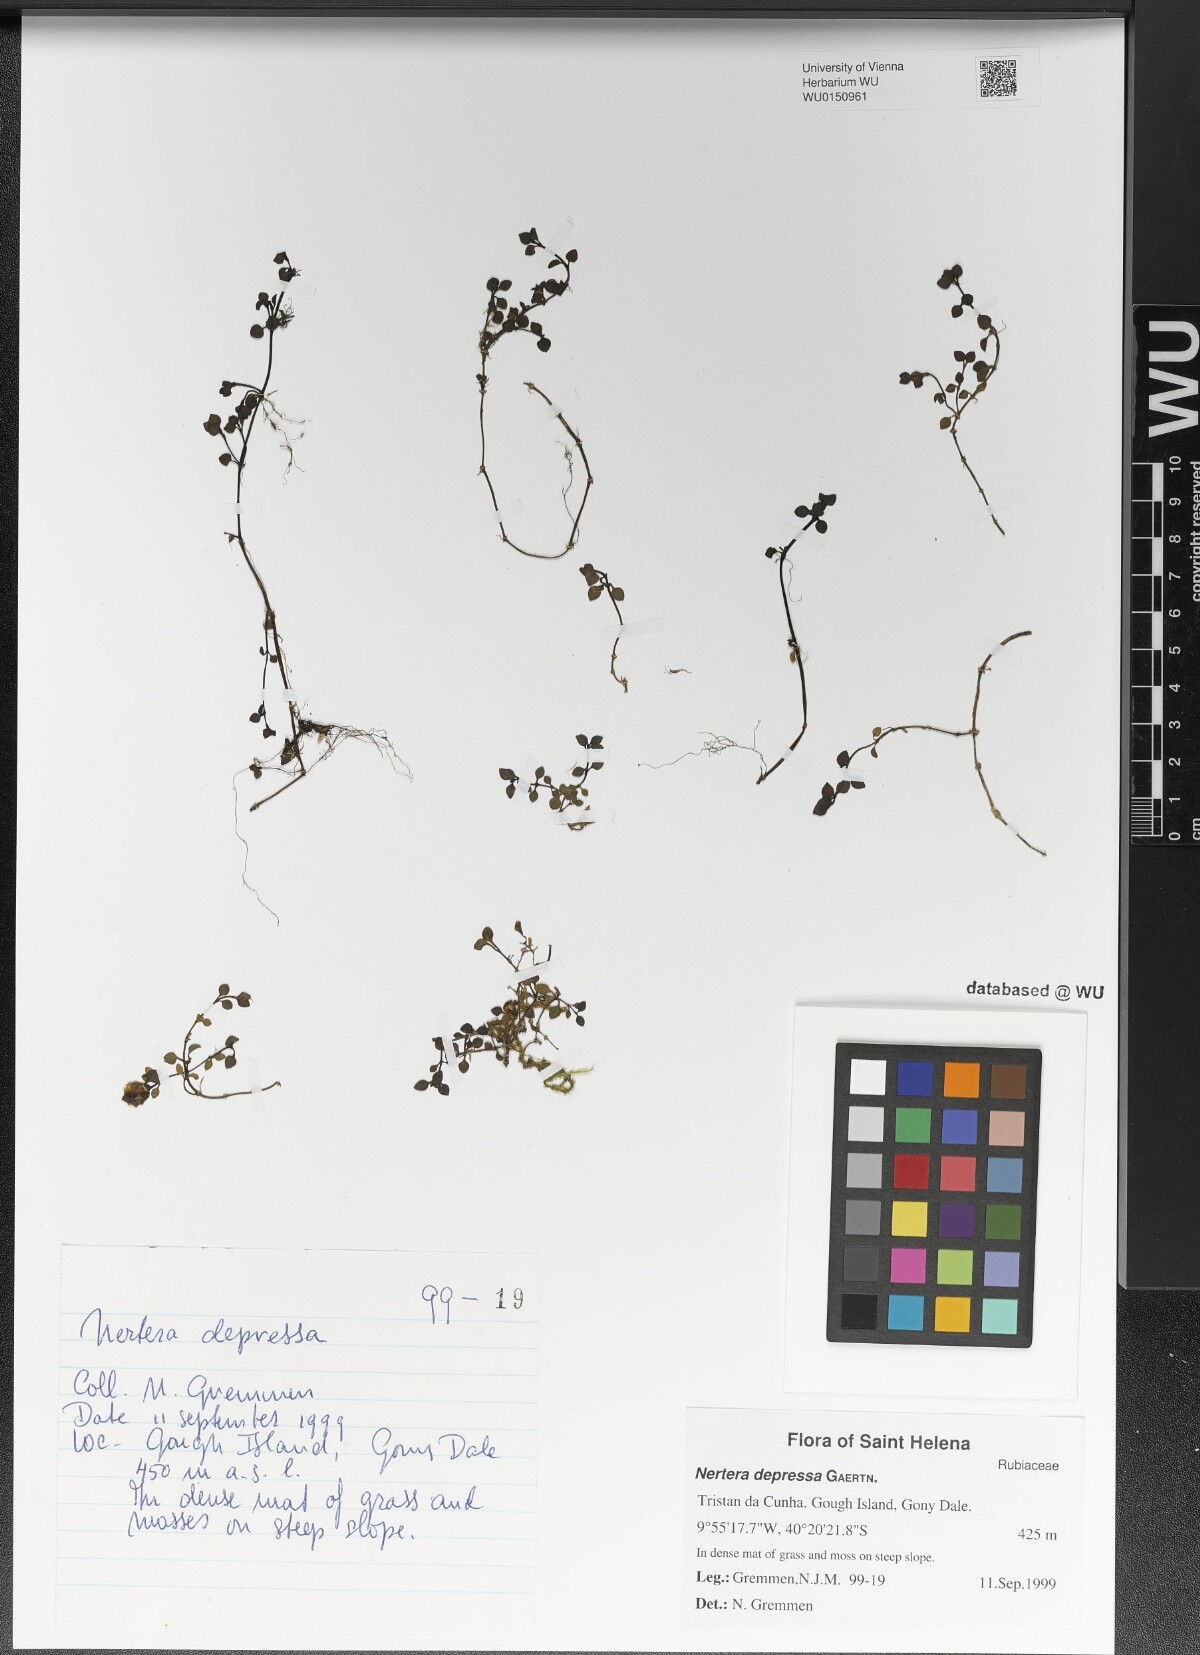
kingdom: Plantae
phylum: Tracheophyta
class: Magnoliopsida
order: Gentianales
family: Rubiaceae
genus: Nertera
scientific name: Nertera granadensis
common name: Beadplant
